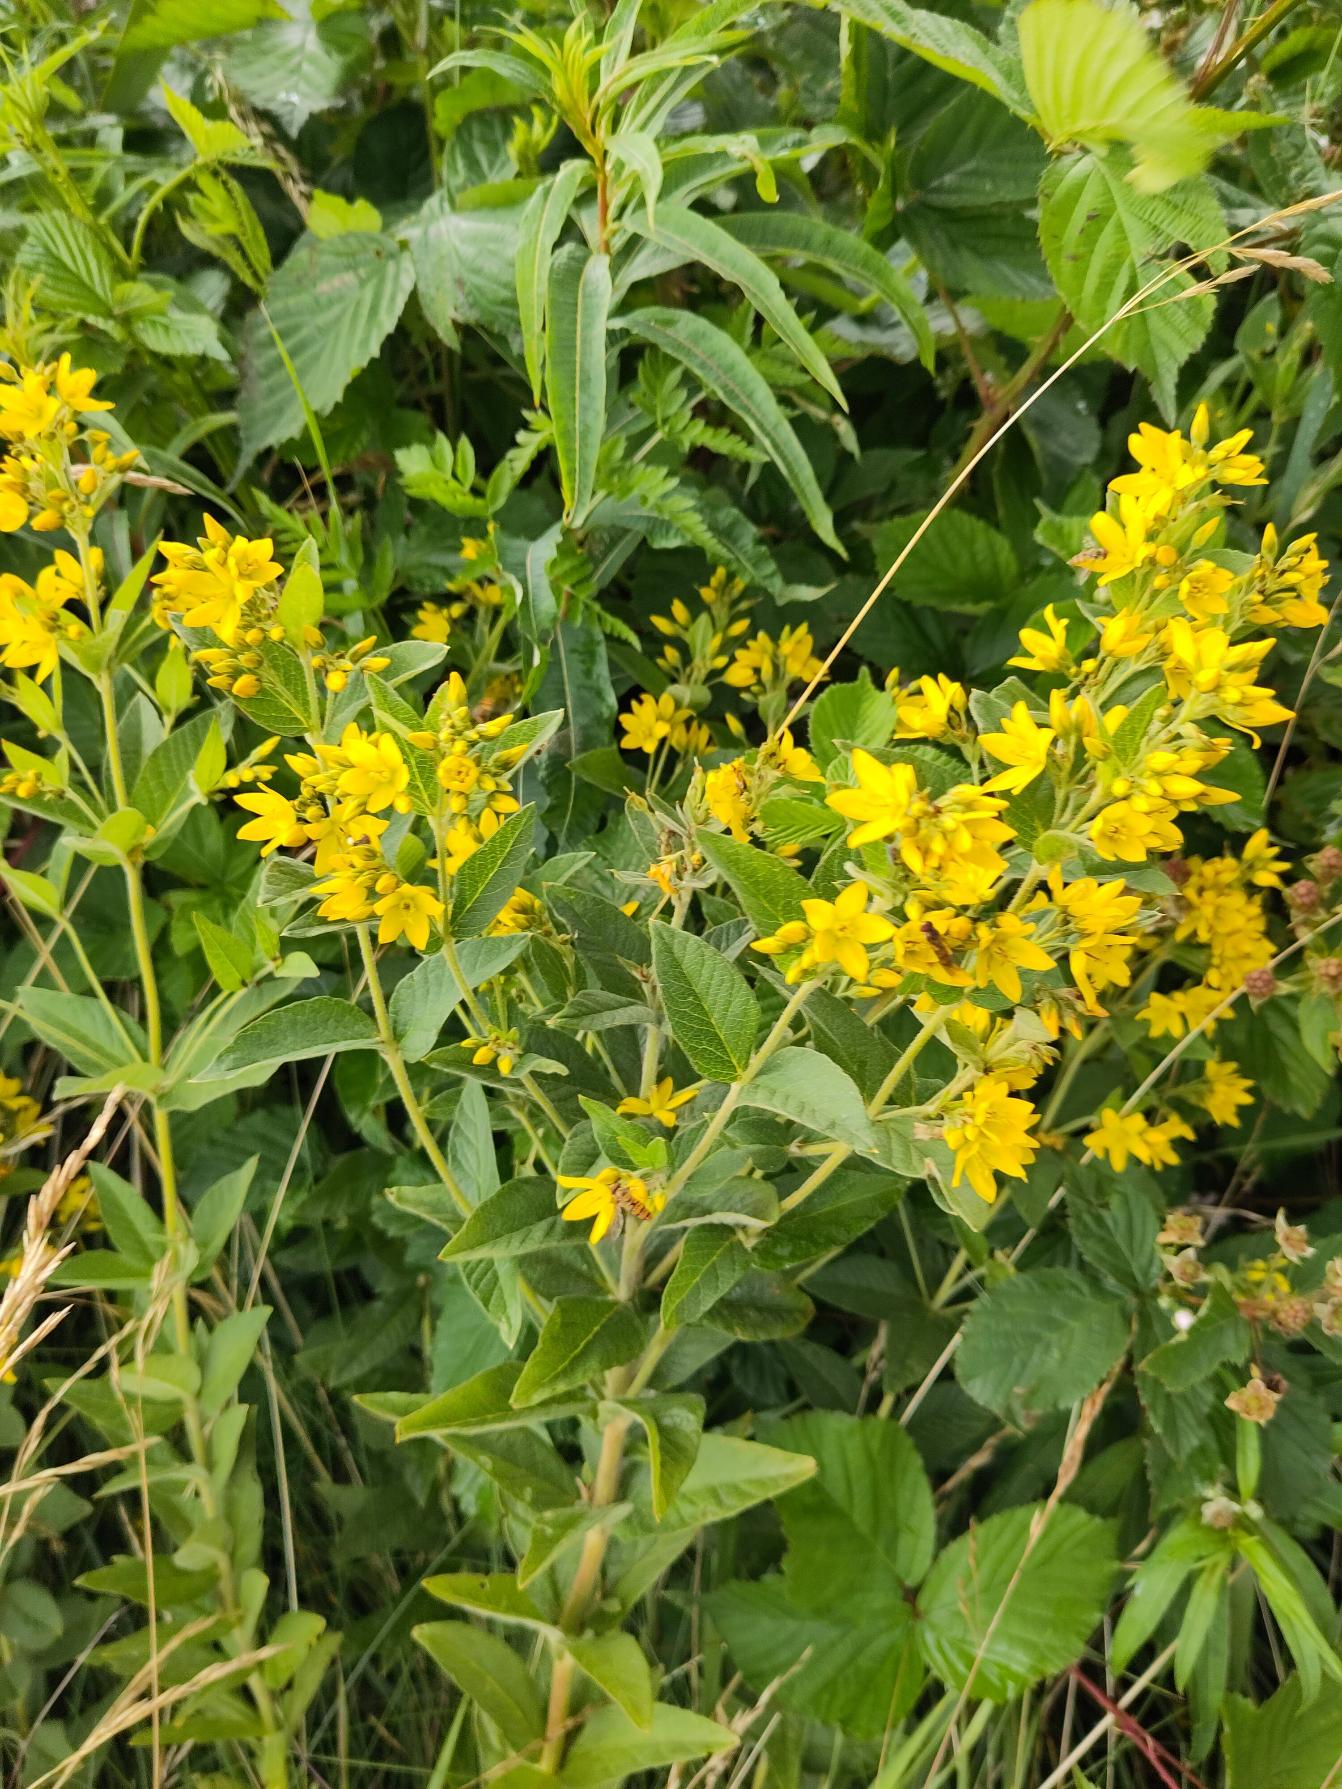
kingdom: Plantae
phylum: Tracheophyta
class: Magnoliopsida
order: Ericales
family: Primulaceae
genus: Lysimachia
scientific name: Lysimachia vulgaris
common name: Almindelig fredløs
